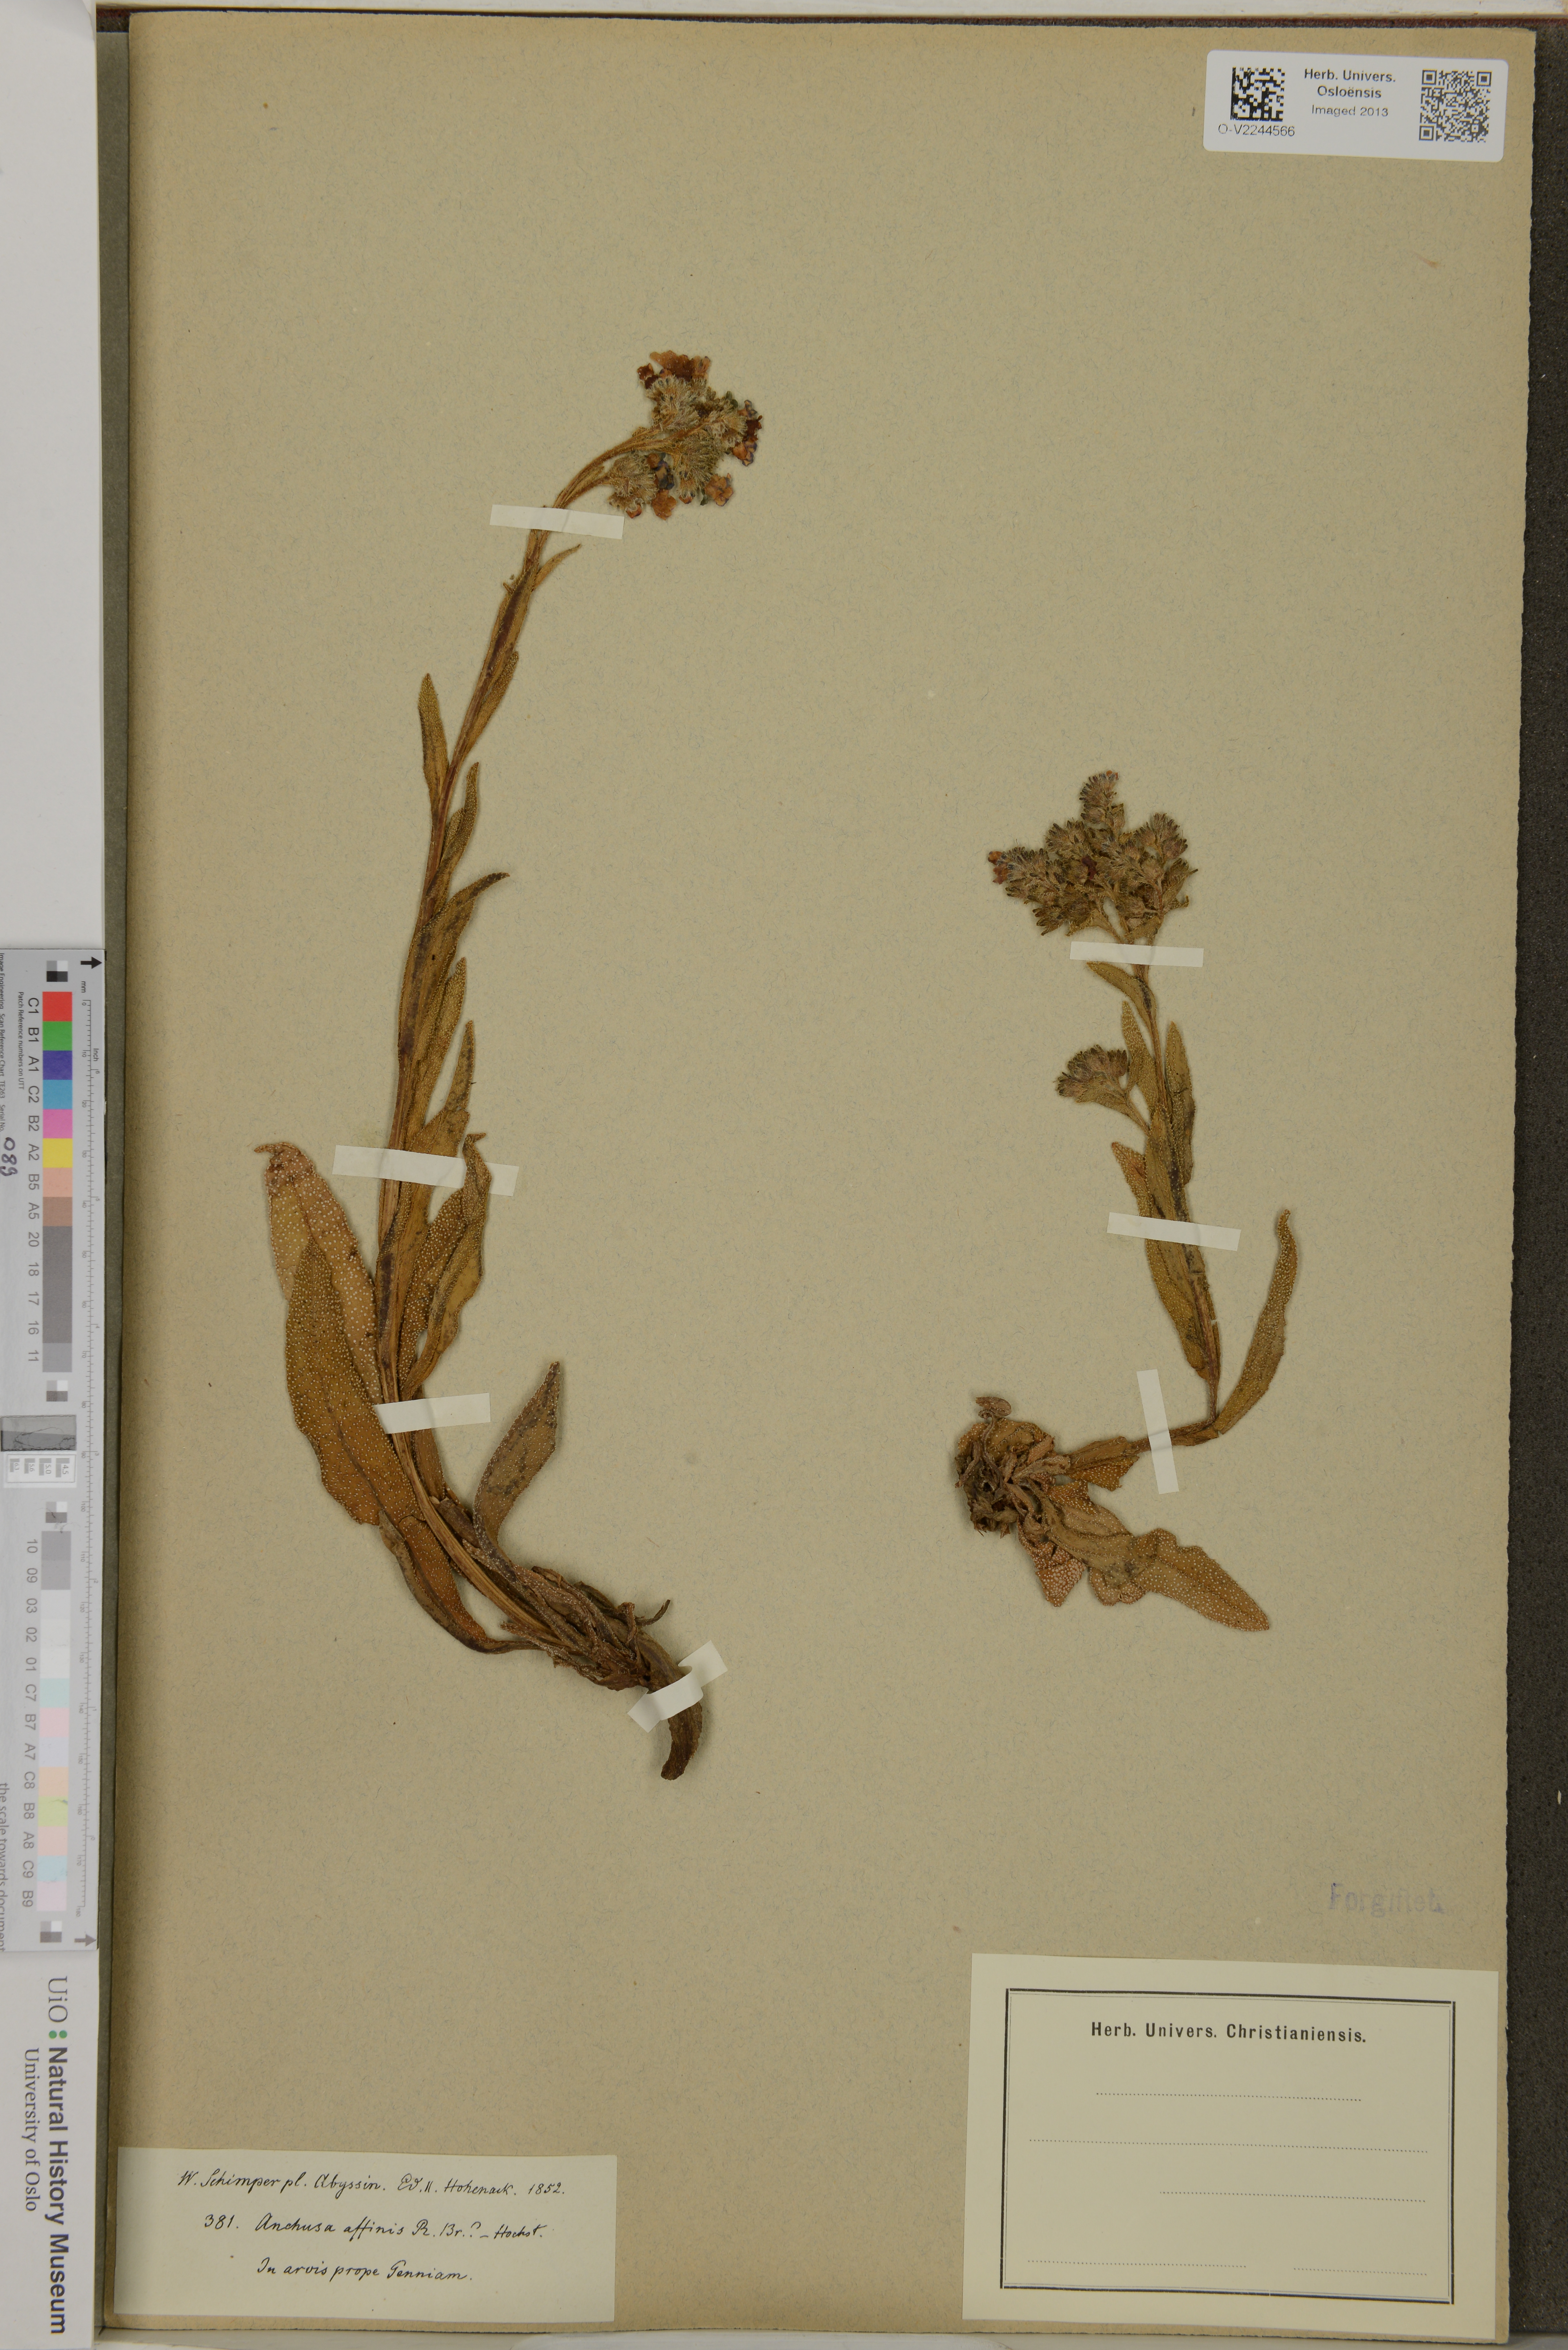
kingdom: Plantae
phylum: Tracheophyta
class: Magnoliopsida
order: Boraginales
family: Boraginaceae
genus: Anchusa
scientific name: Anchusa affinis
